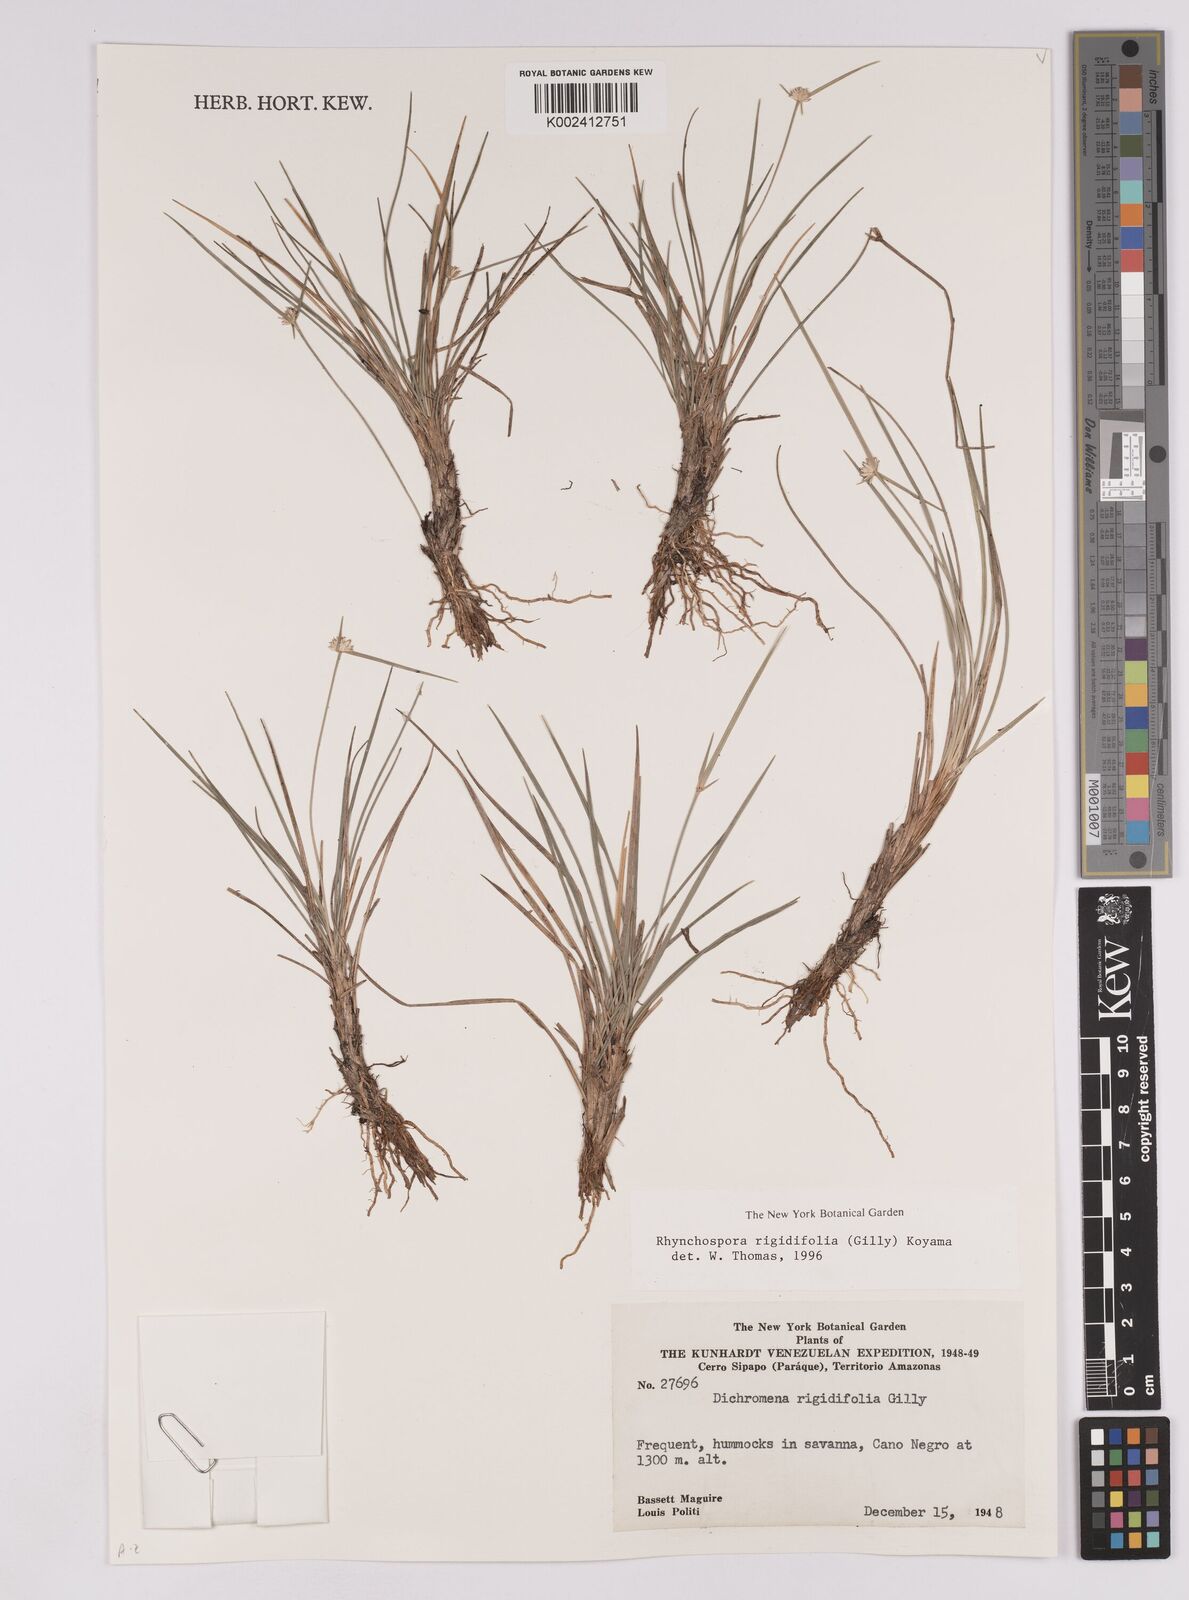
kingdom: Plantae
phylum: Tracheophyta
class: Liliopsida
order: Poales
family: Cyperaceae
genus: Rhynchospora
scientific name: Rhynchospora rigidifolia
